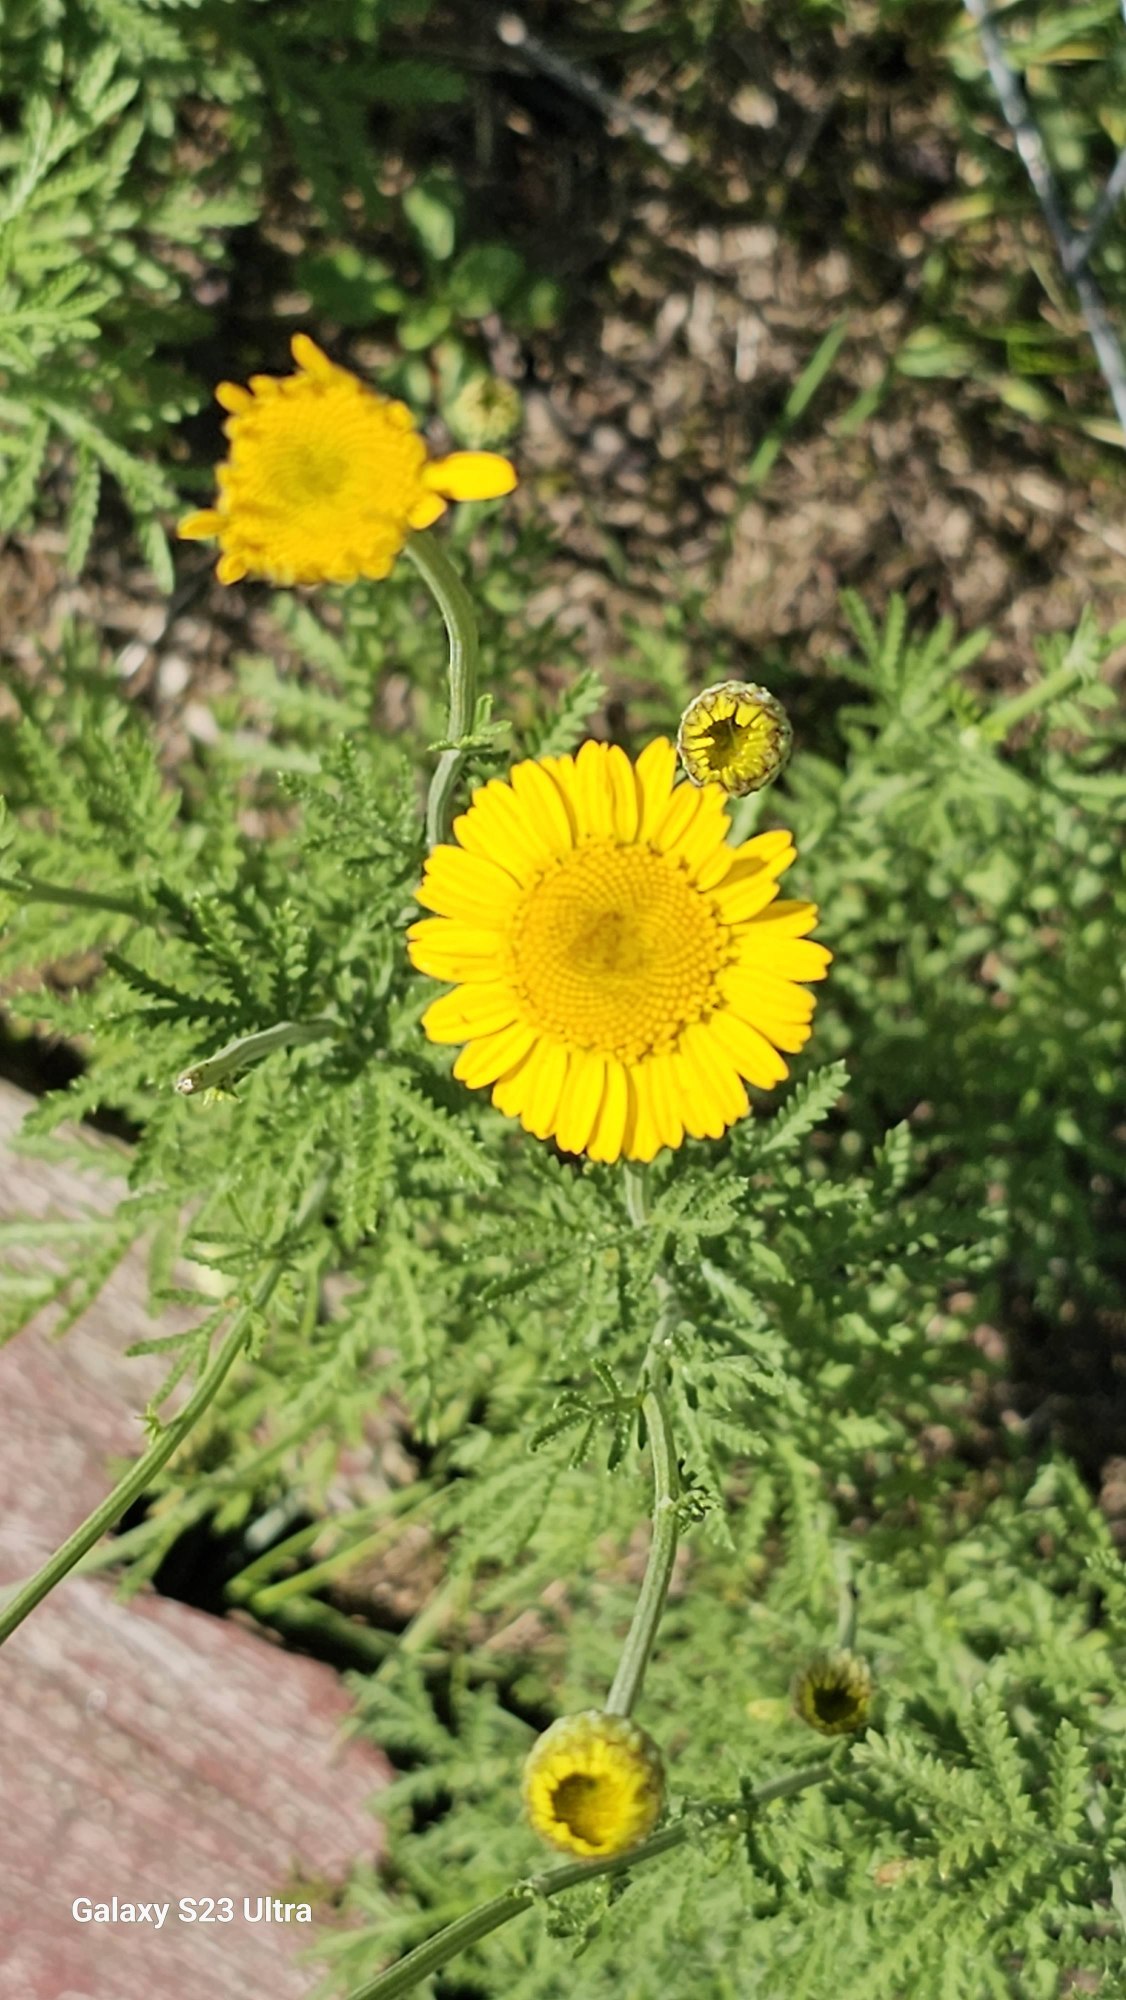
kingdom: Plantae
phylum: Tracheophyta
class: Magnoliopsida
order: Asterales
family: Asteraceae
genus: Cota
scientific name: Cota tinctoria
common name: Farve-gåseurt
